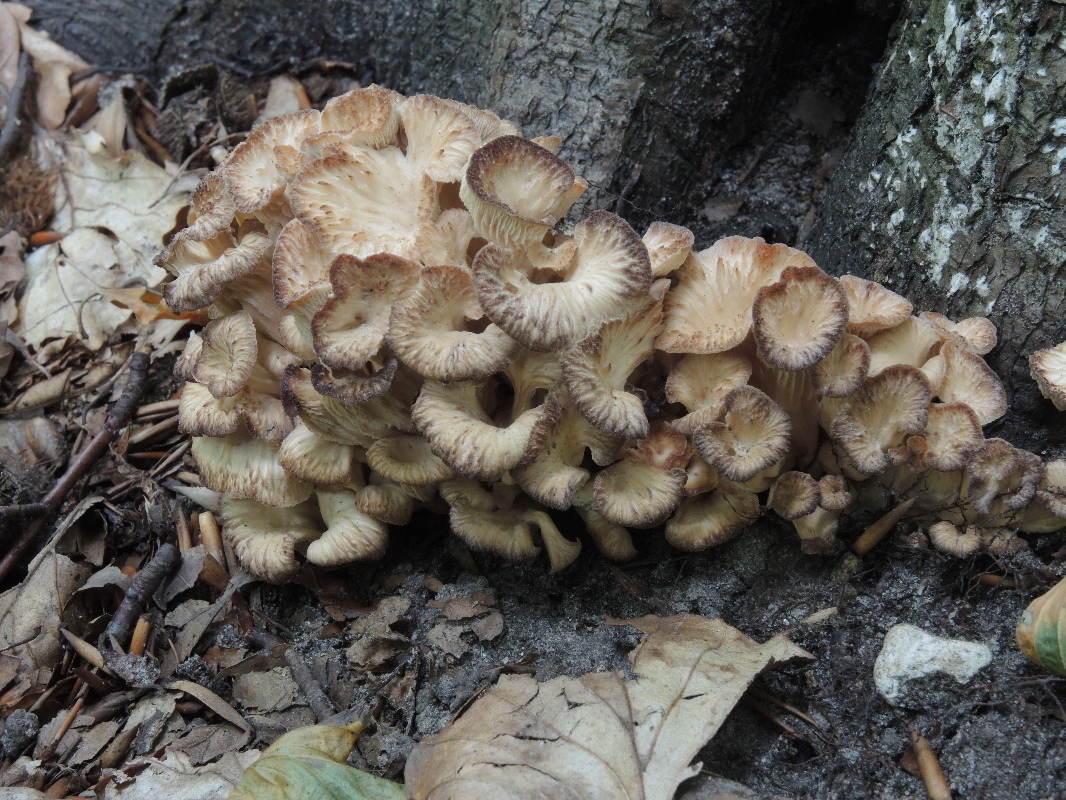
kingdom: Fungi
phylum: Basidiomycota
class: Agaricomycetes
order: Russulales
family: Auriscalpiaceae
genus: Lentinellus
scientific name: Lentinellus cochleatus
